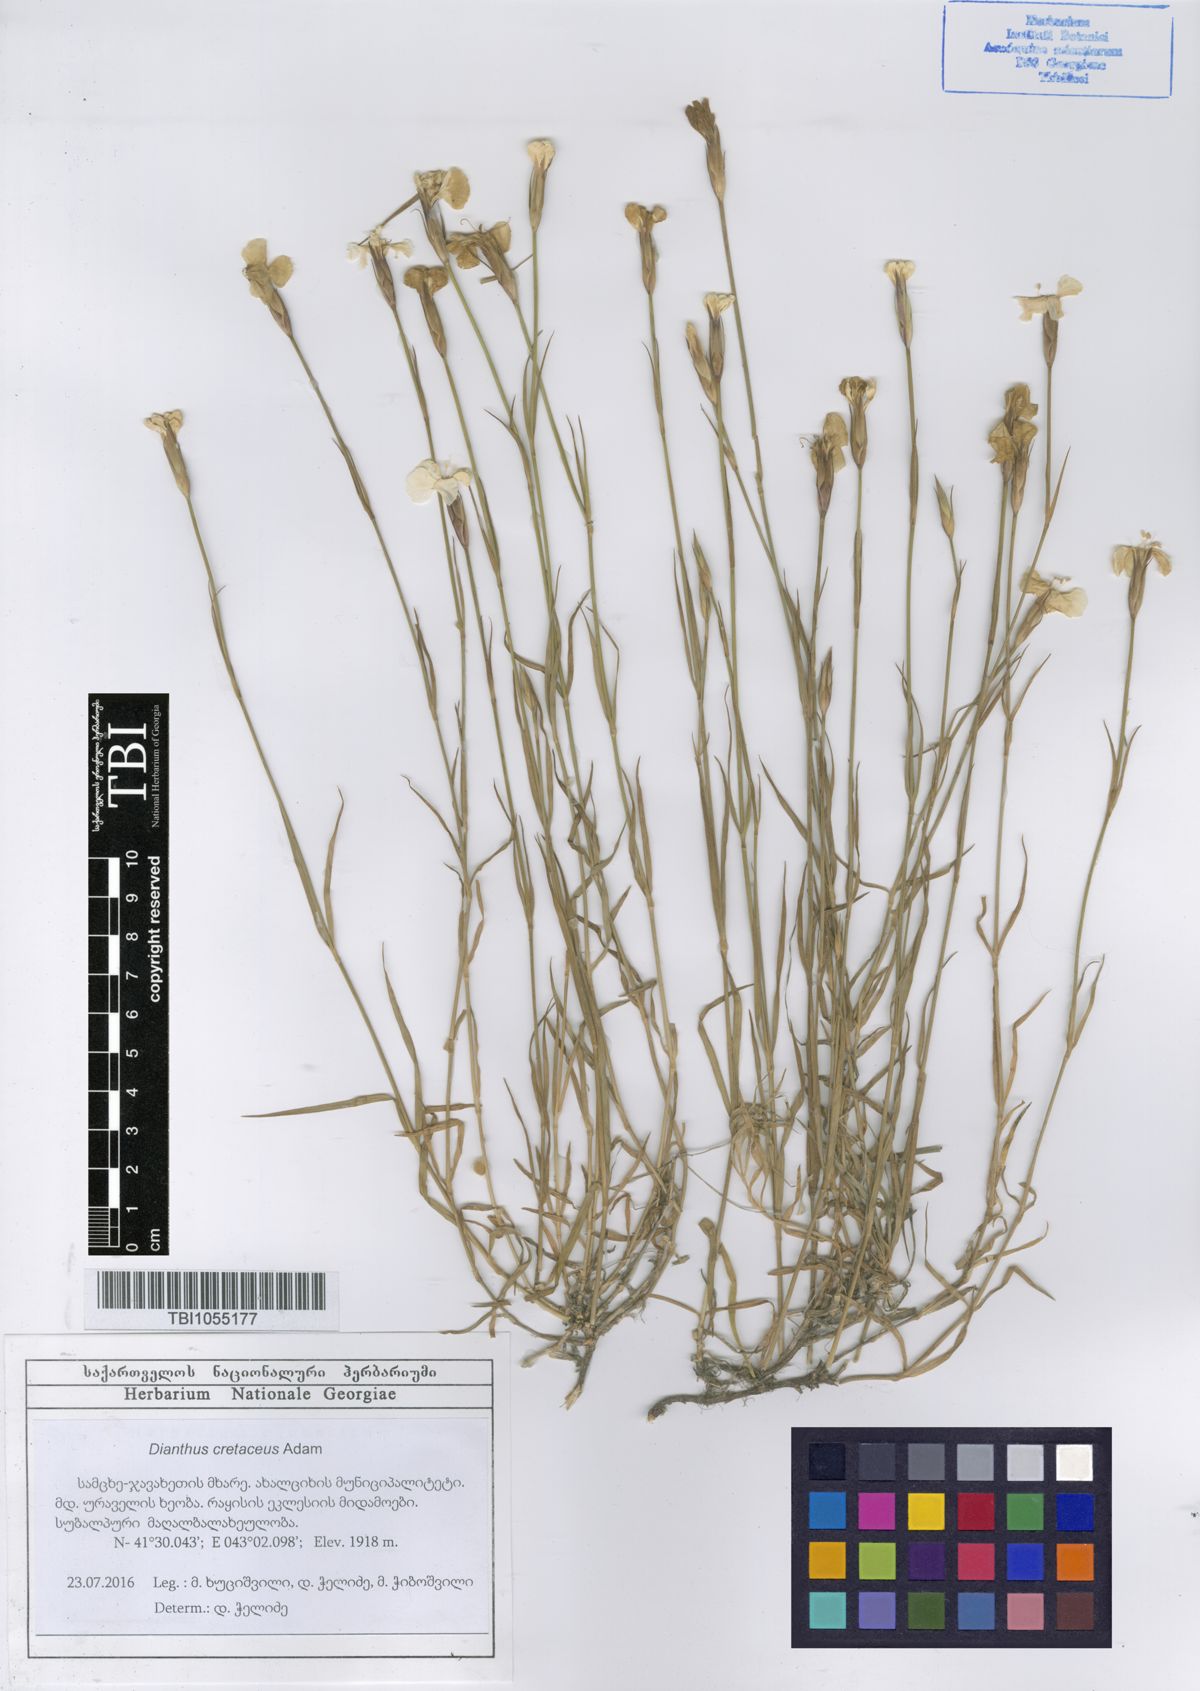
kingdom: Plantae
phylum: Tracheophyta
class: Magnoliopsida
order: Caryophyllales
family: Caryophyllaceae
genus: Dianthus
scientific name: Dianthus cretaceus
